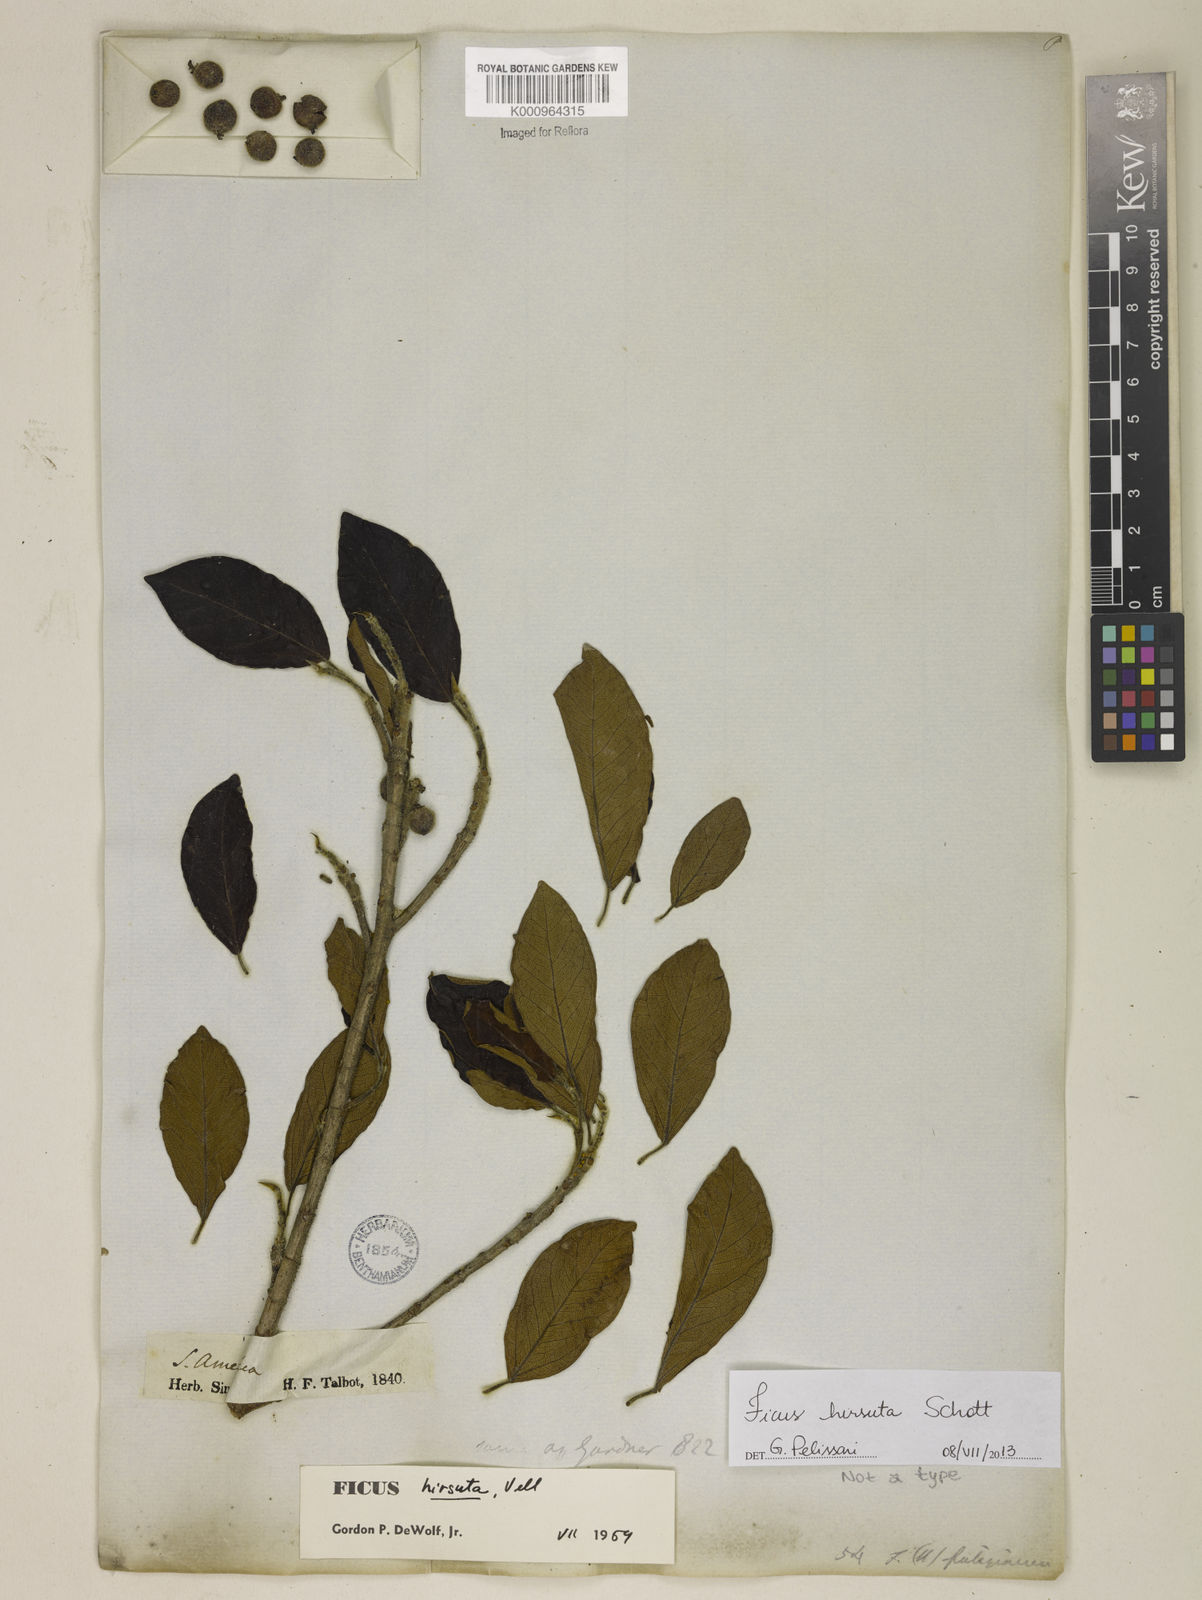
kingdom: Plantae
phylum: Tracheophyta
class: Magnoliopsida
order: Rosales
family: Moraceae
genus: Ficus
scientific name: Ficus hirsuta
